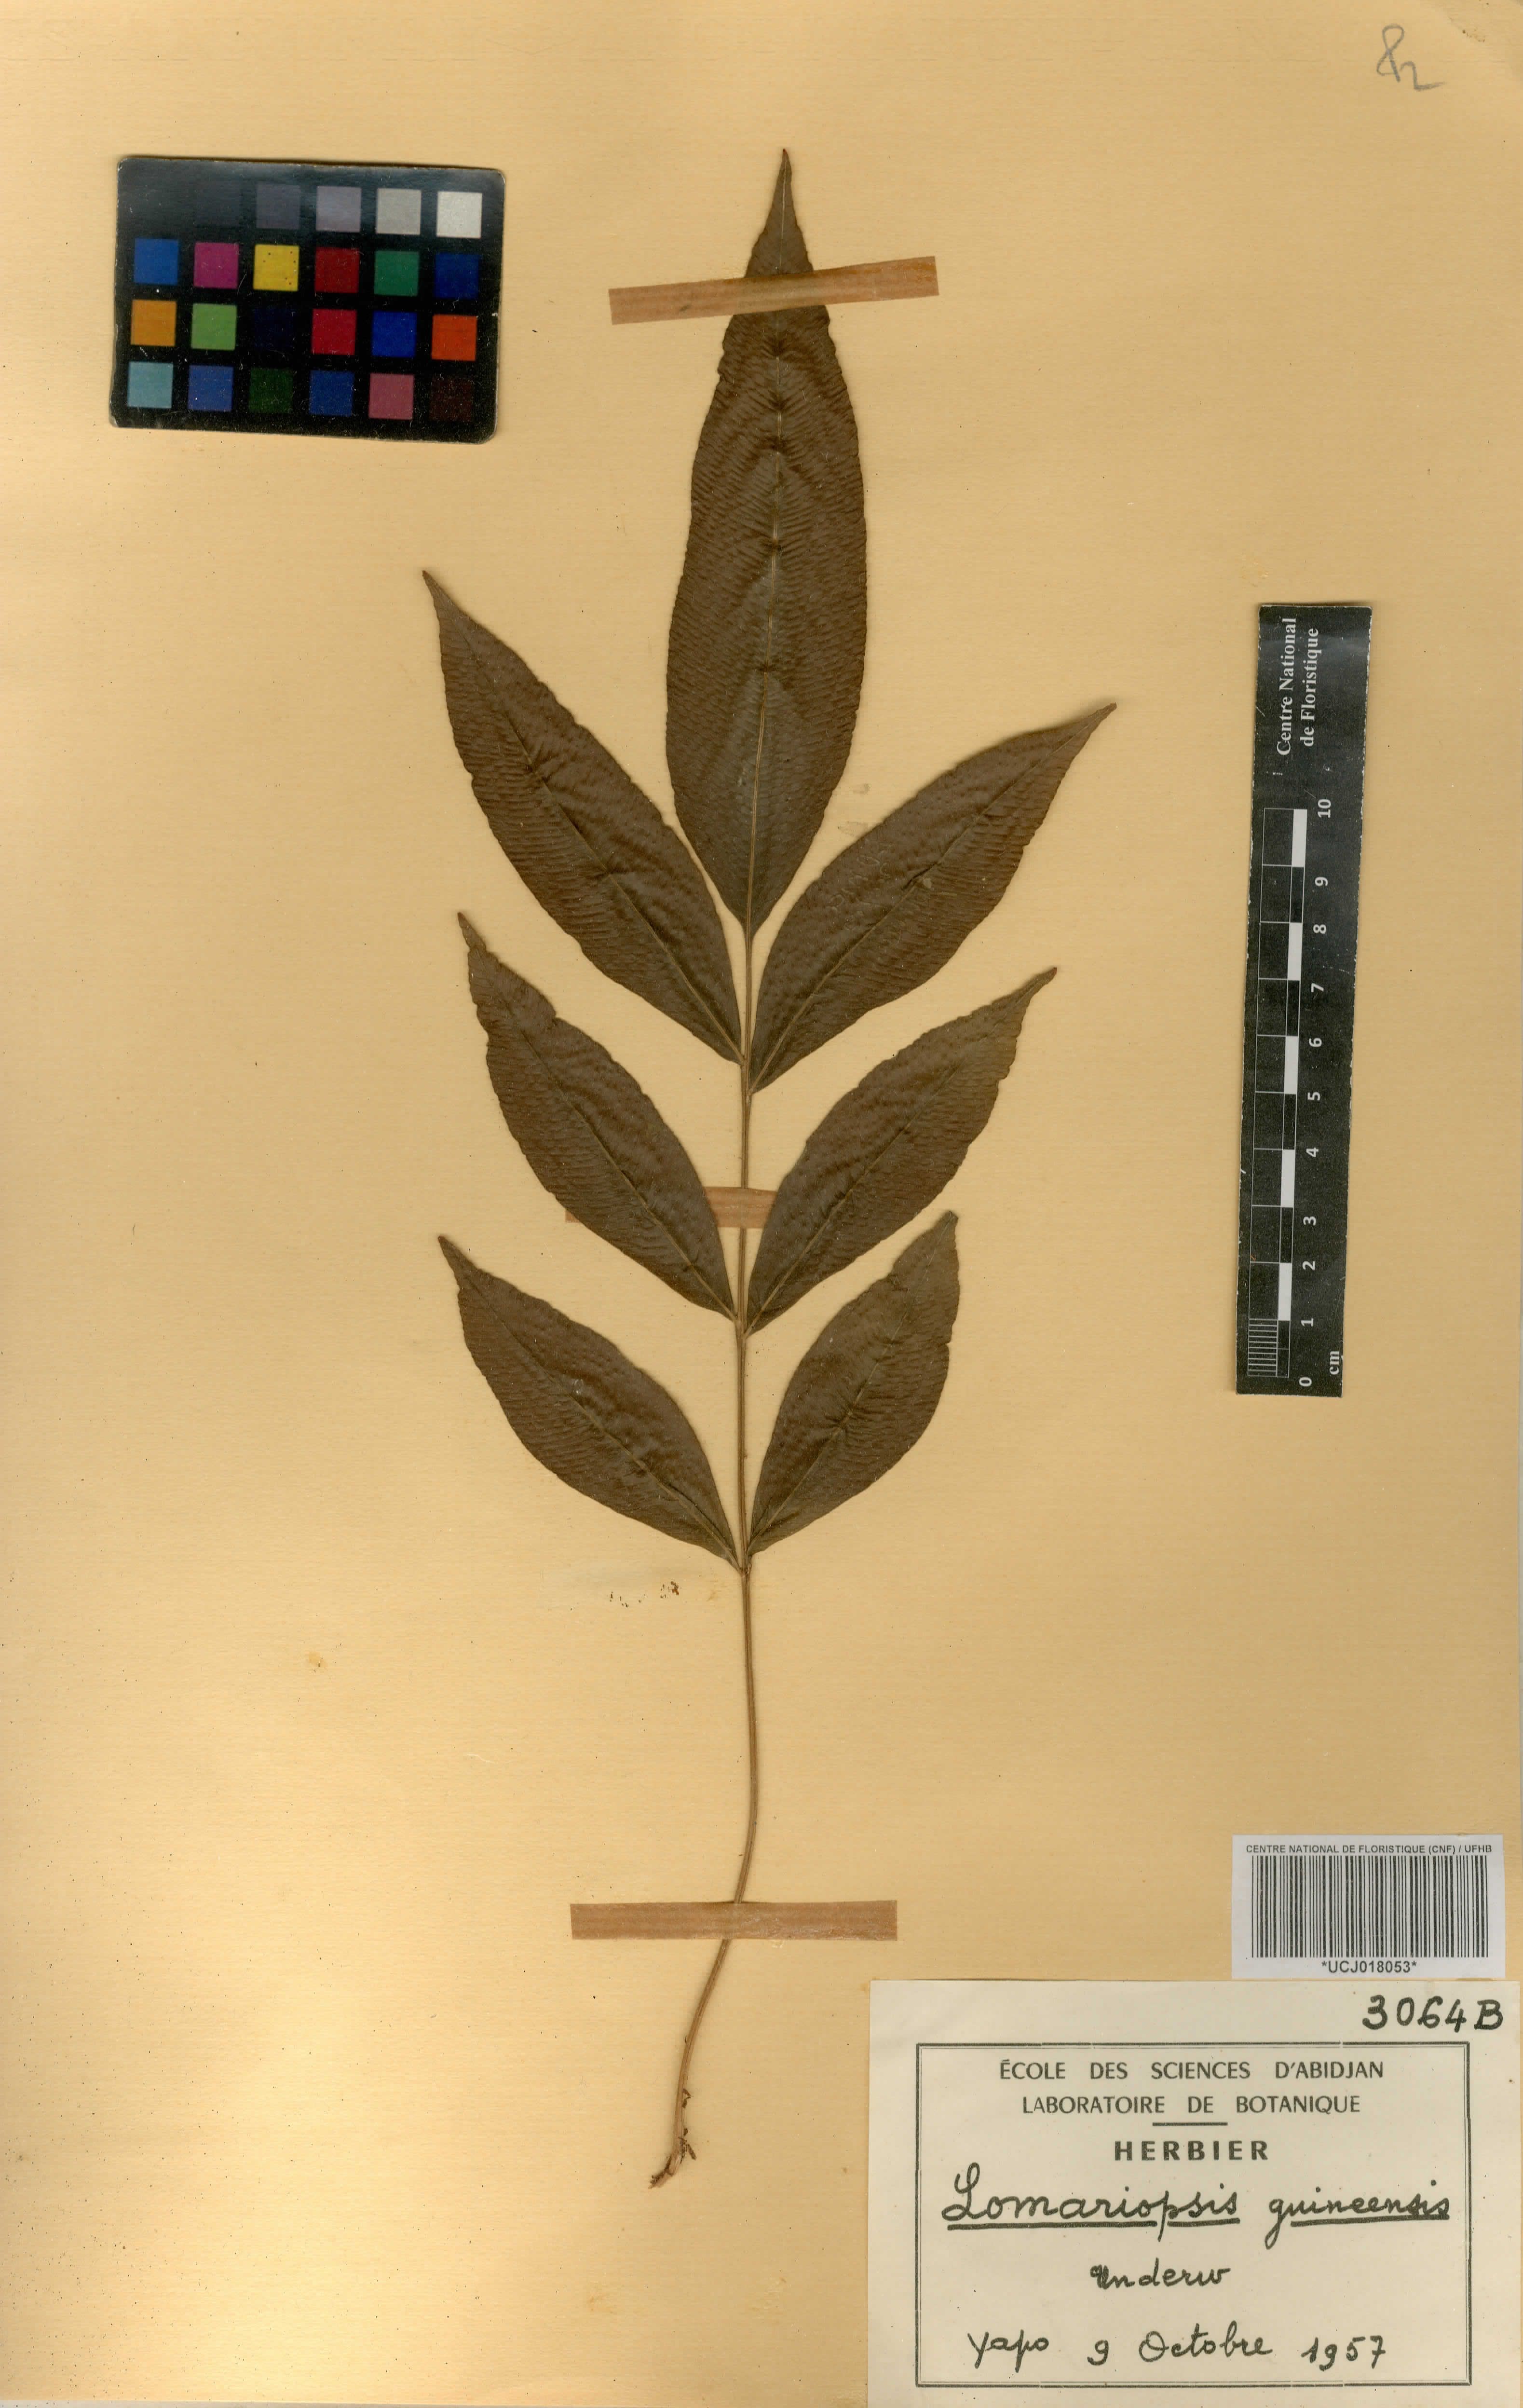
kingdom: Plantae
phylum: Tracheophyta
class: Polypodiopsida
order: Polypodiales
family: Lomariopsidaceae
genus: Lomariopsis
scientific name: Lomariopsis guineensis
